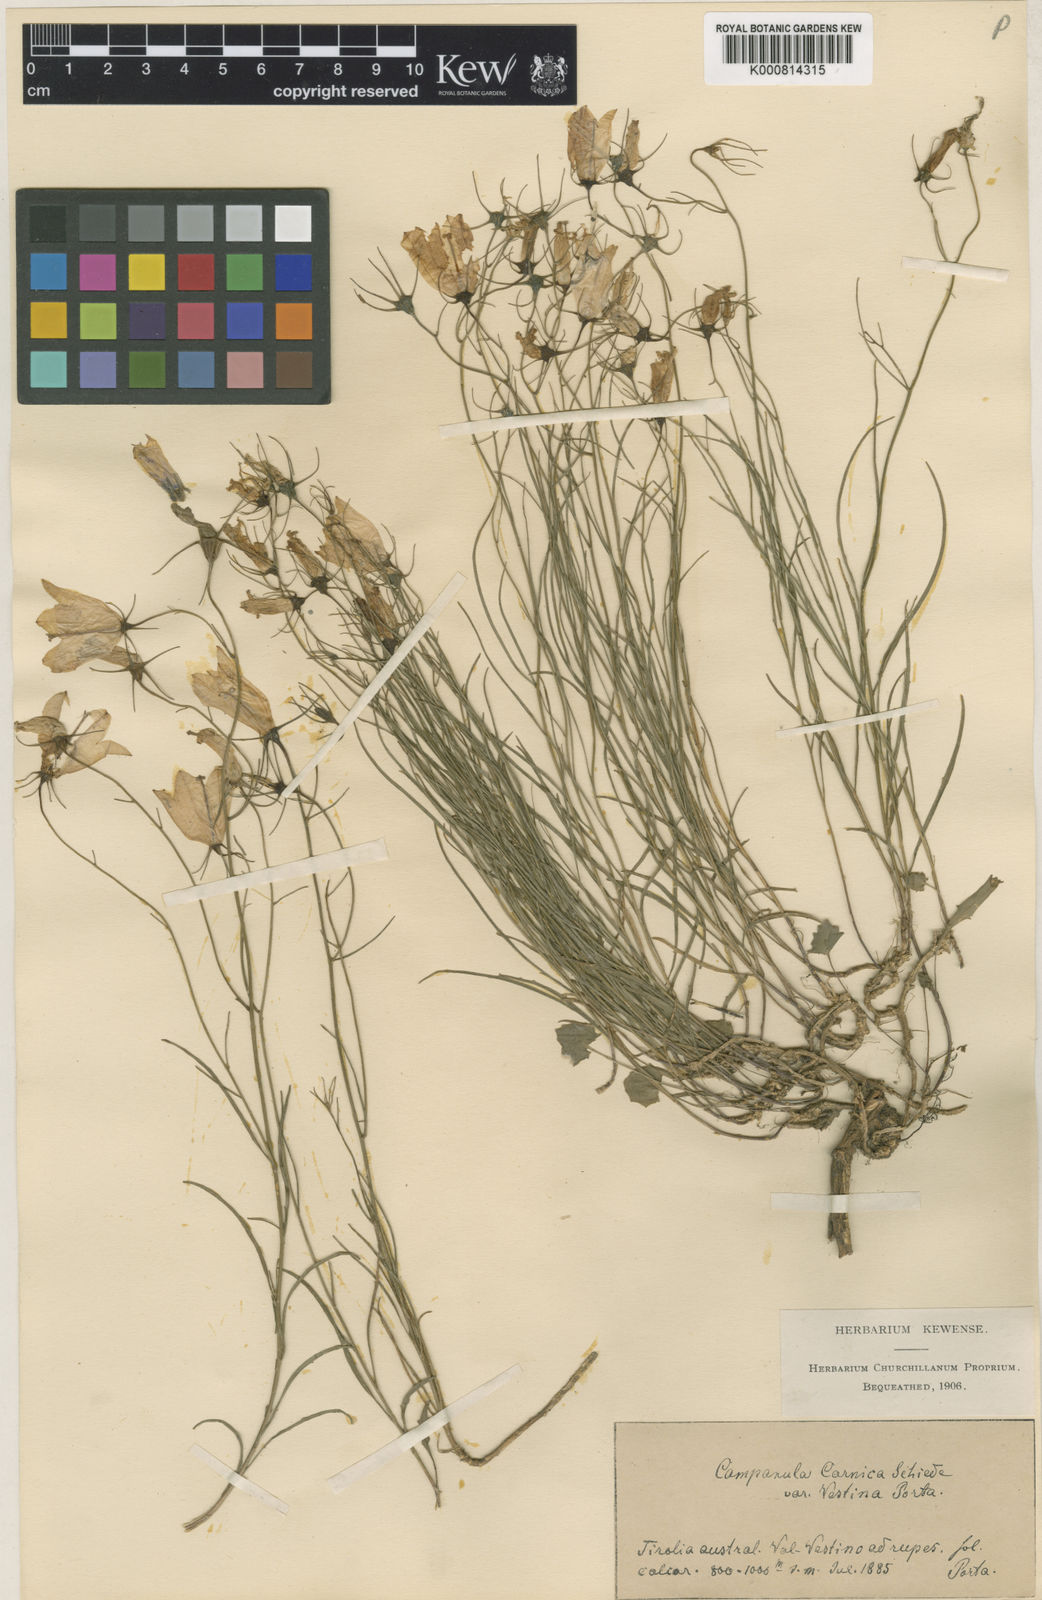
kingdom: Plantae
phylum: Tracheophyta
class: Magnoliopsida
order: Asterales
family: Campanulaceae
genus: Campanula
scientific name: Campanula carnica
